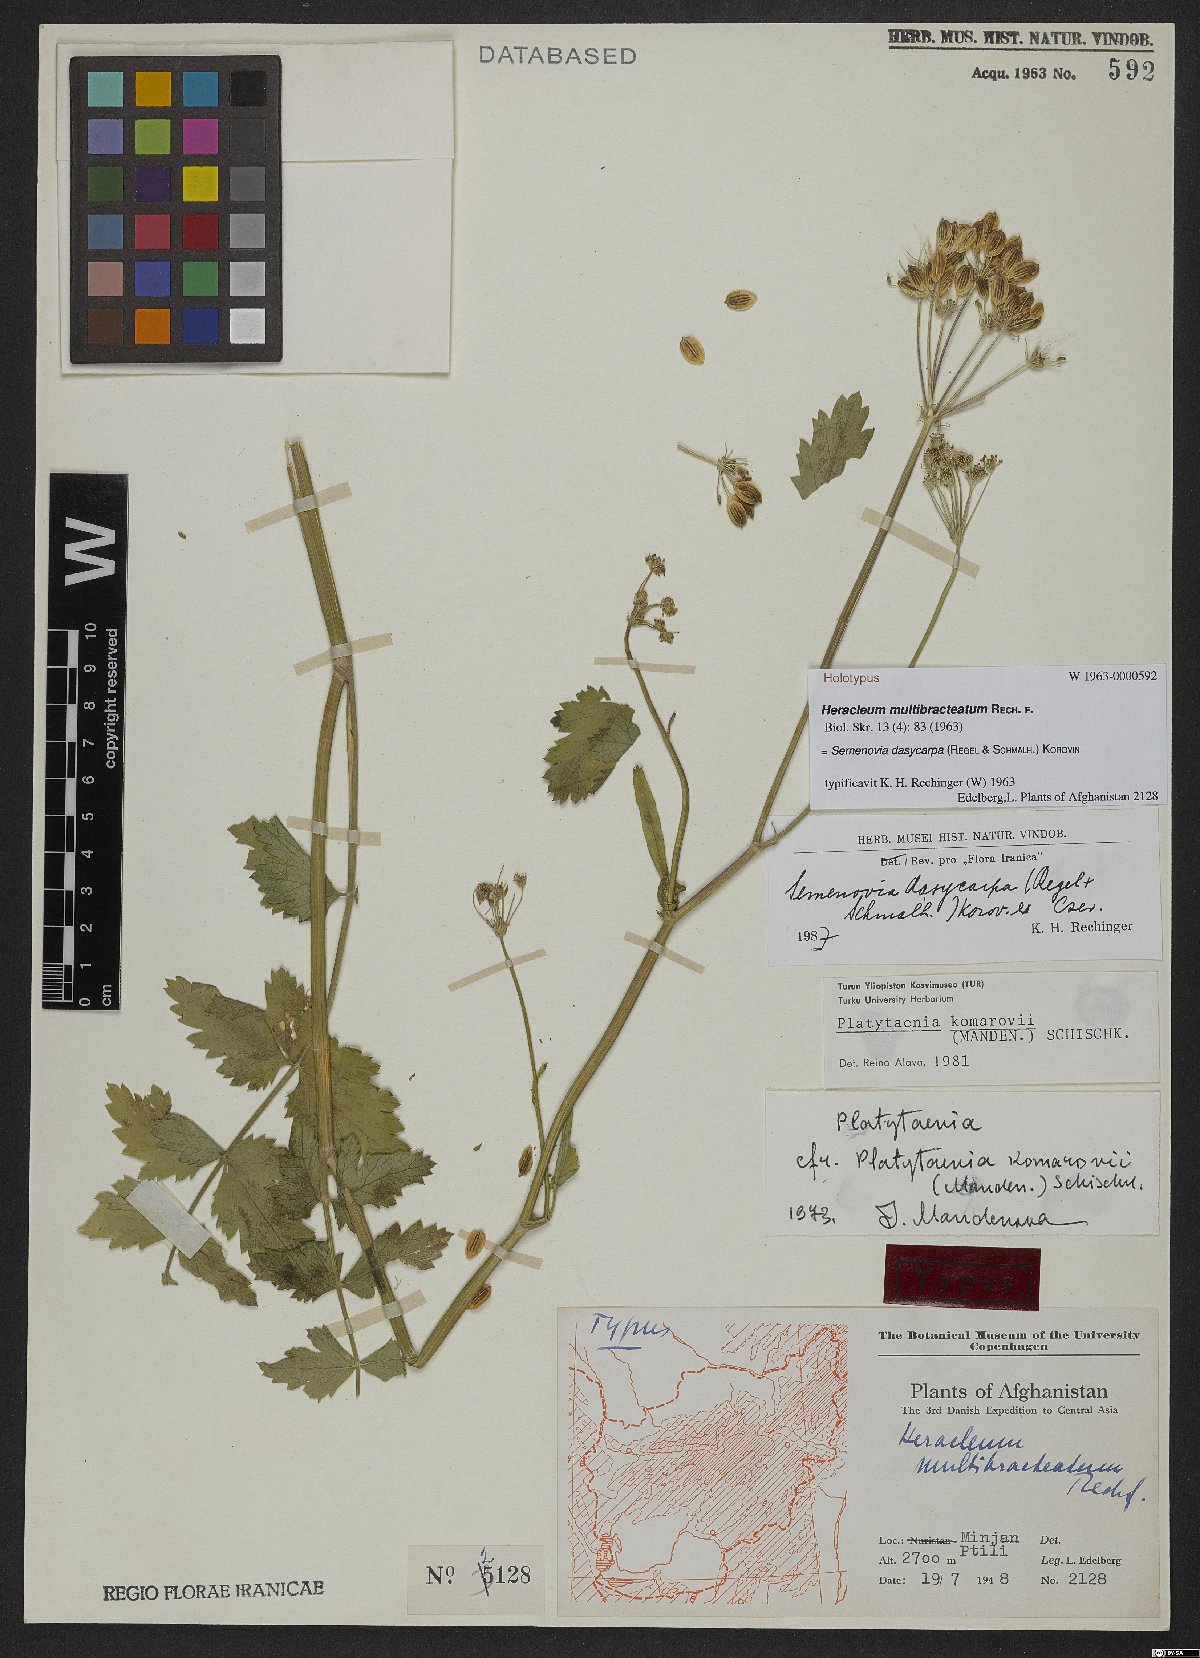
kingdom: Plantae
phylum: Tracheophyta
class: Magnoliopsida
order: Apiales
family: Apiaceae
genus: Semenovia
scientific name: Semenovia dasycarpa
